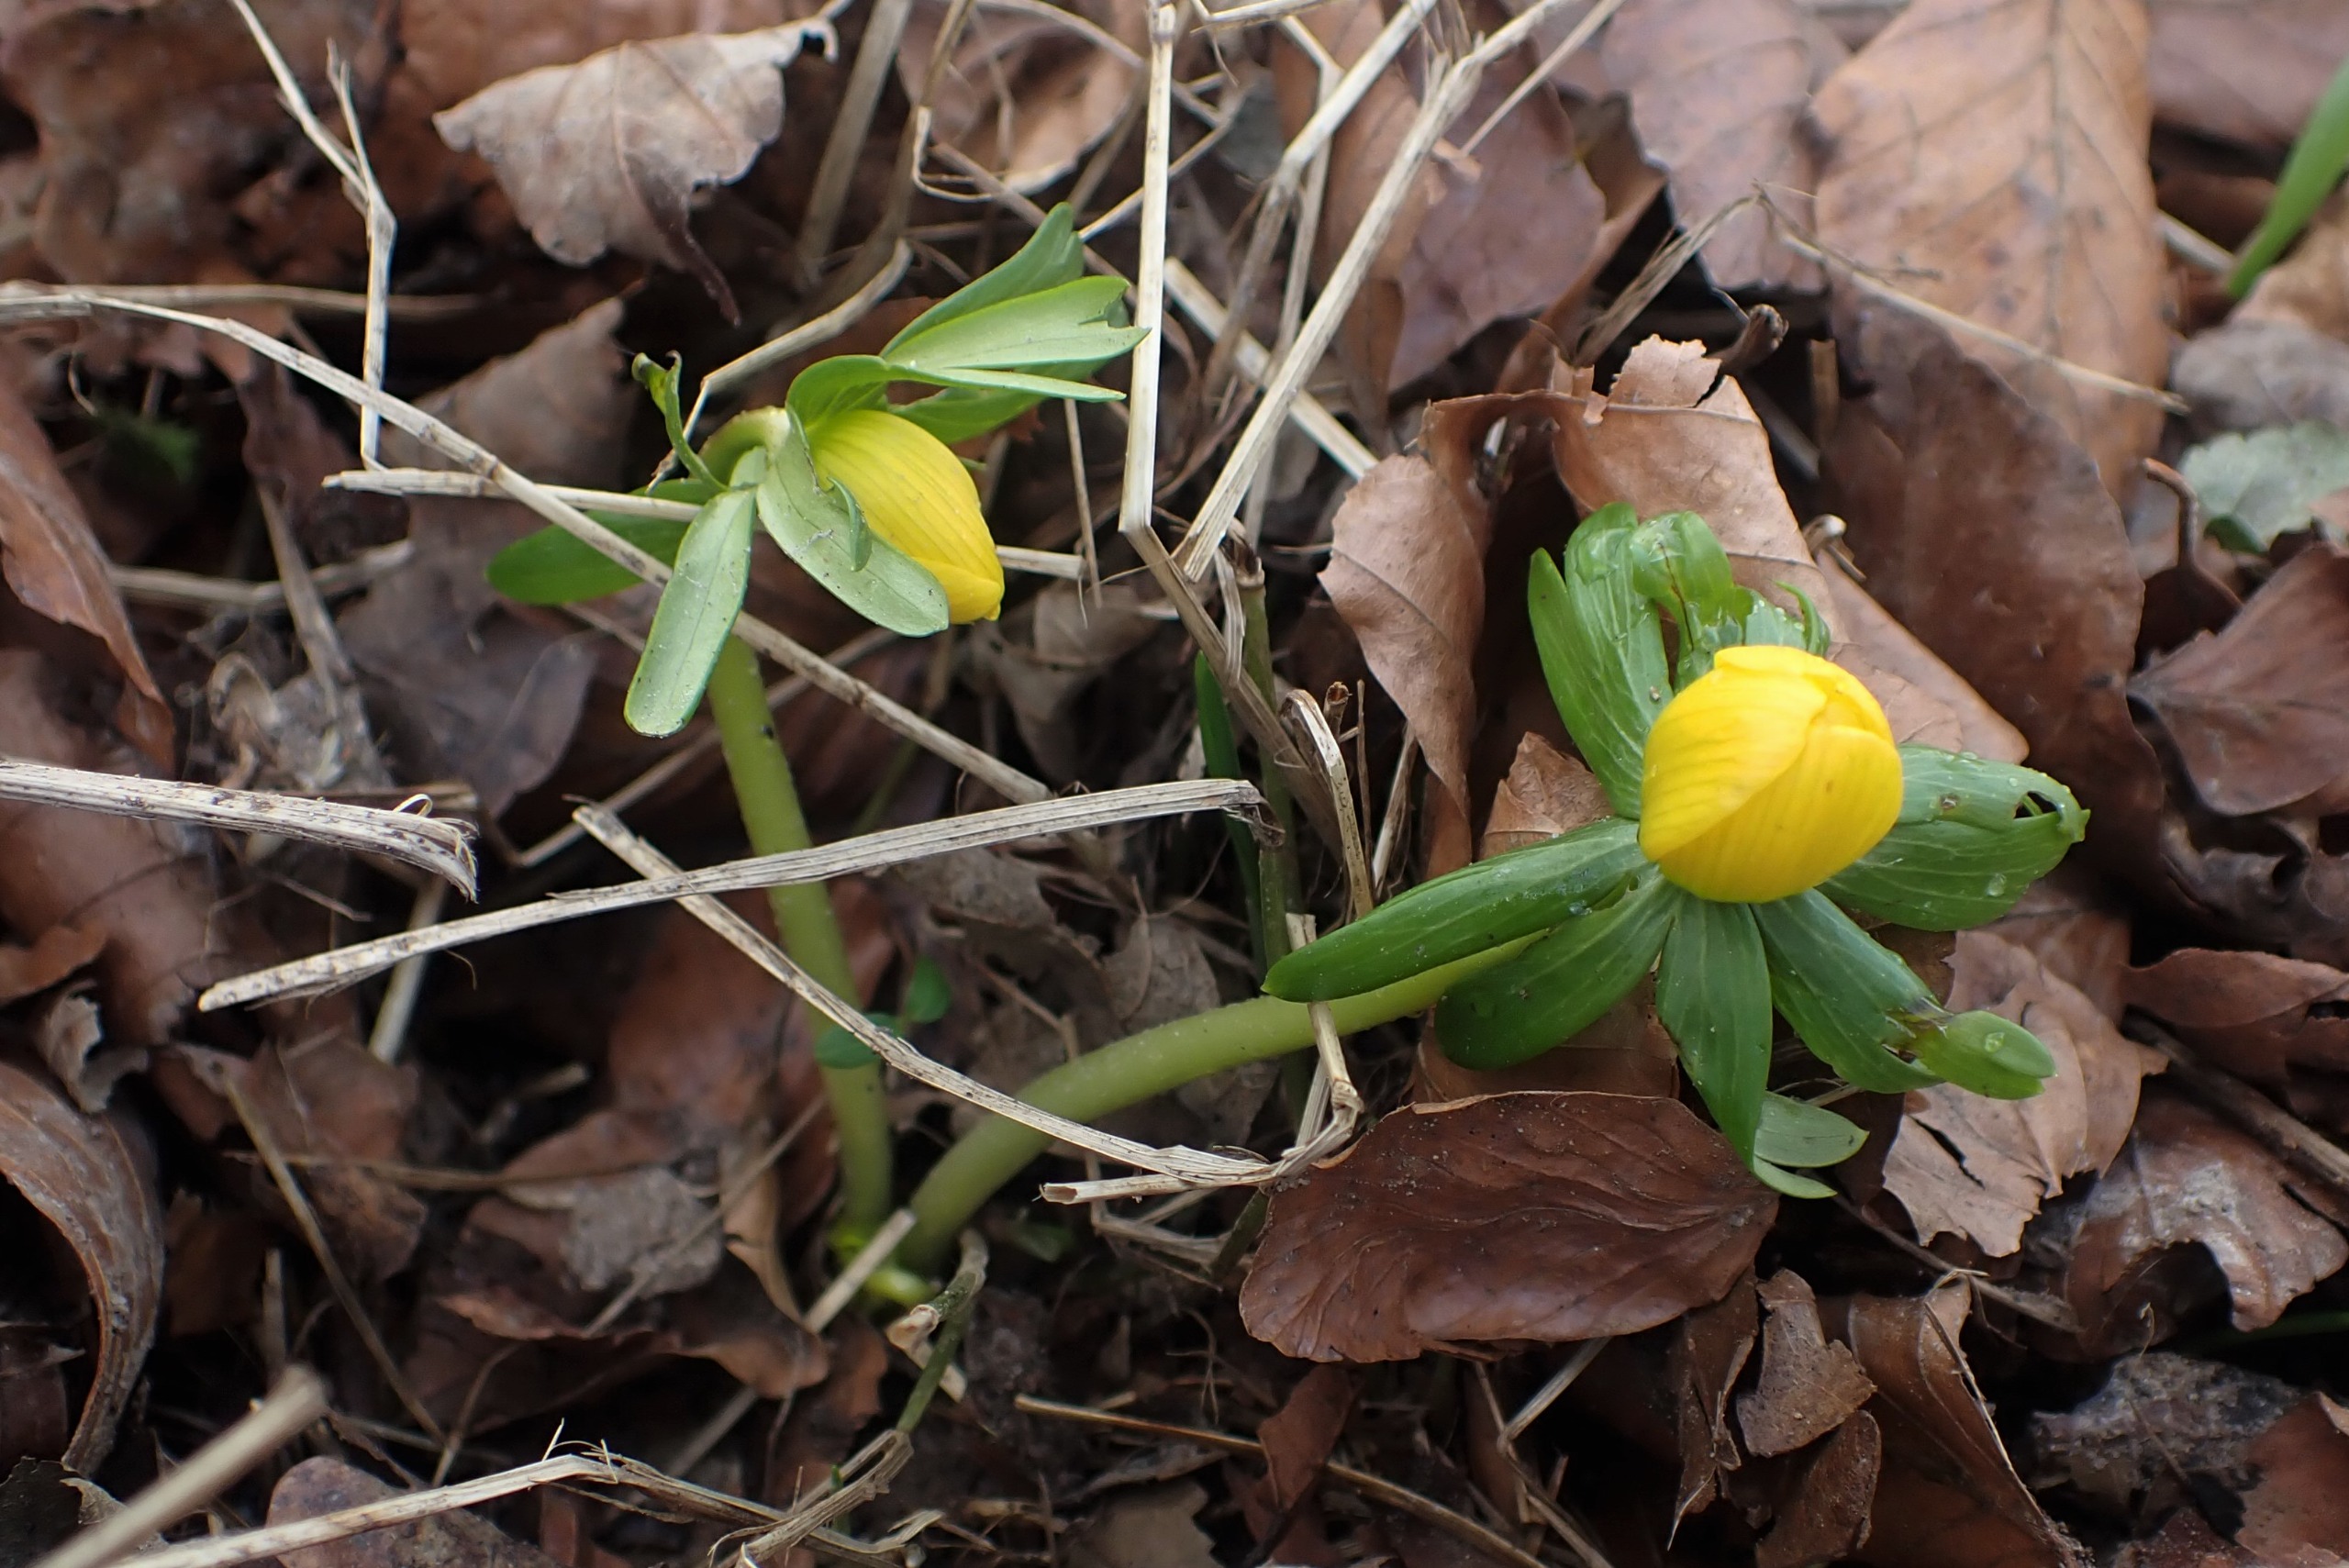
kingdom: Plantae
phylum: Tracheophyta
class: Magnoliopsida
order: Ranunculales
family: Ranunculaceae
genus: Eranthis
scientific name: Eranthis hyemalis
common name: Erantis
